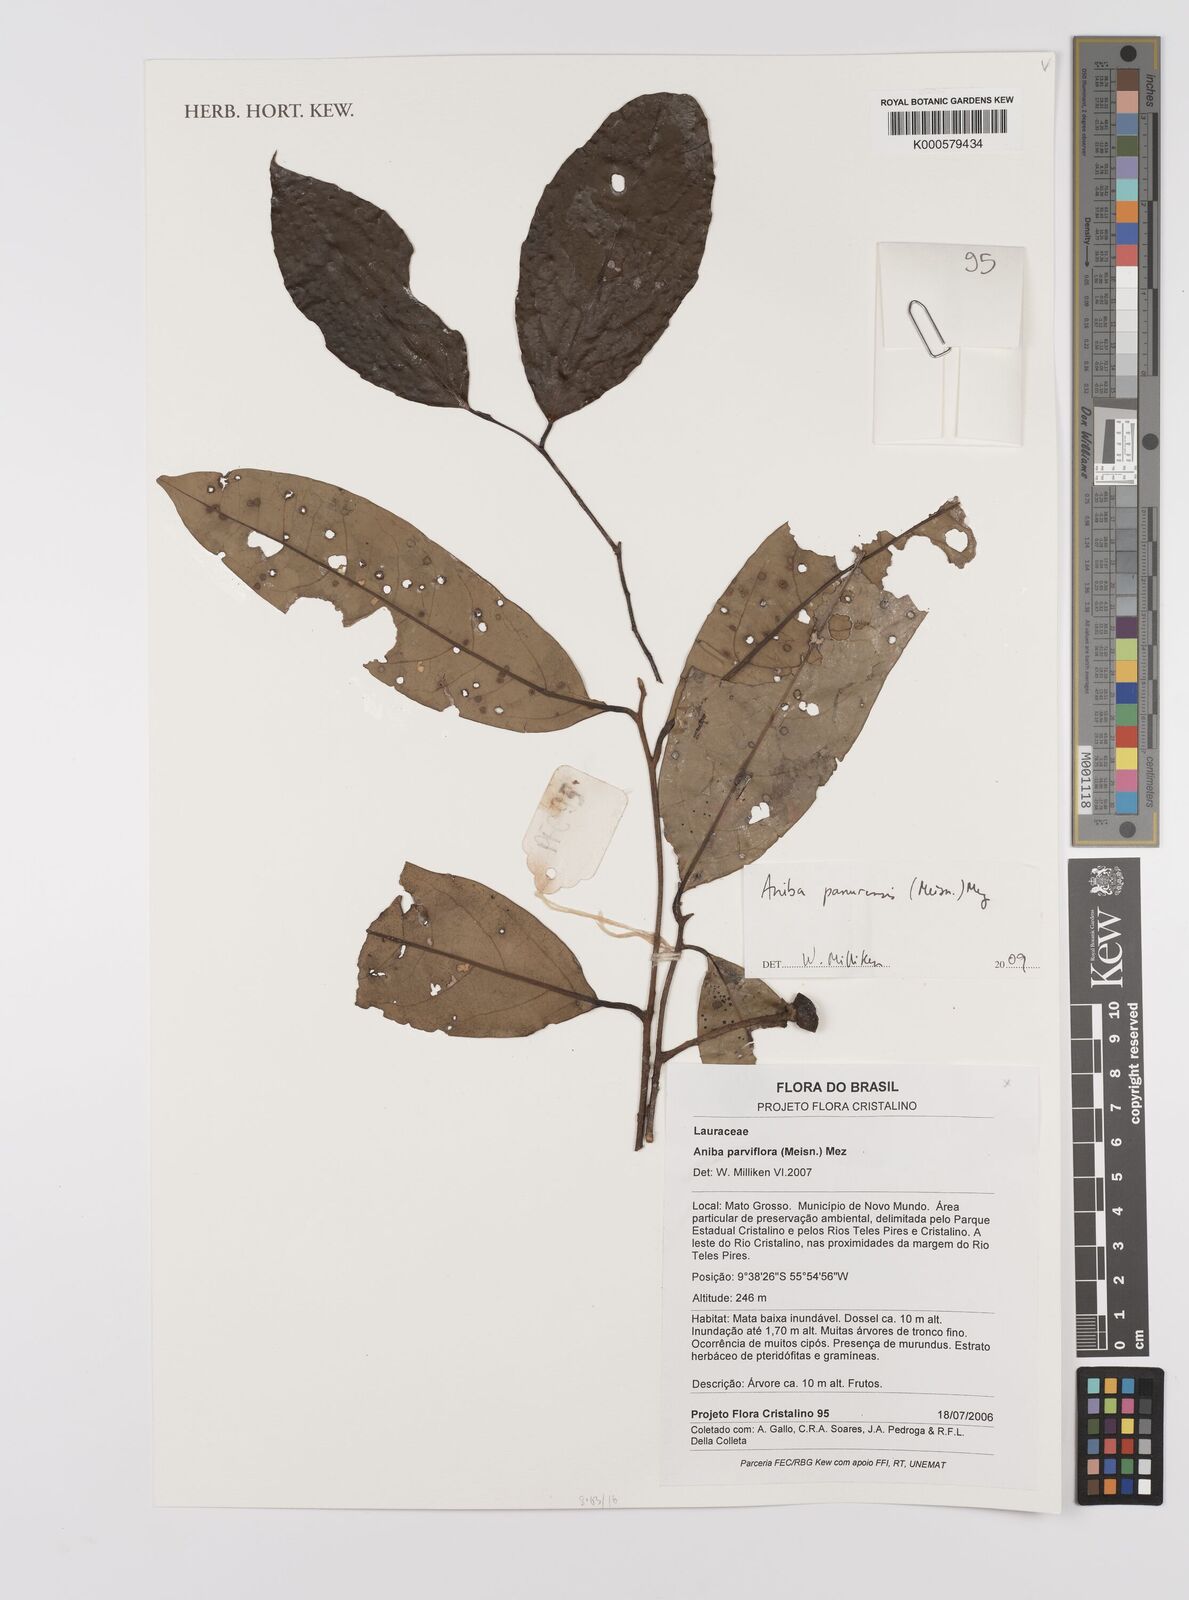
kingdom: Plantae
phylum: Tracheophyta
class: Magnoliopsida
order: Laurales
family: Lauraceae
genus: Aniba
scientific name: Aniba panurensis
